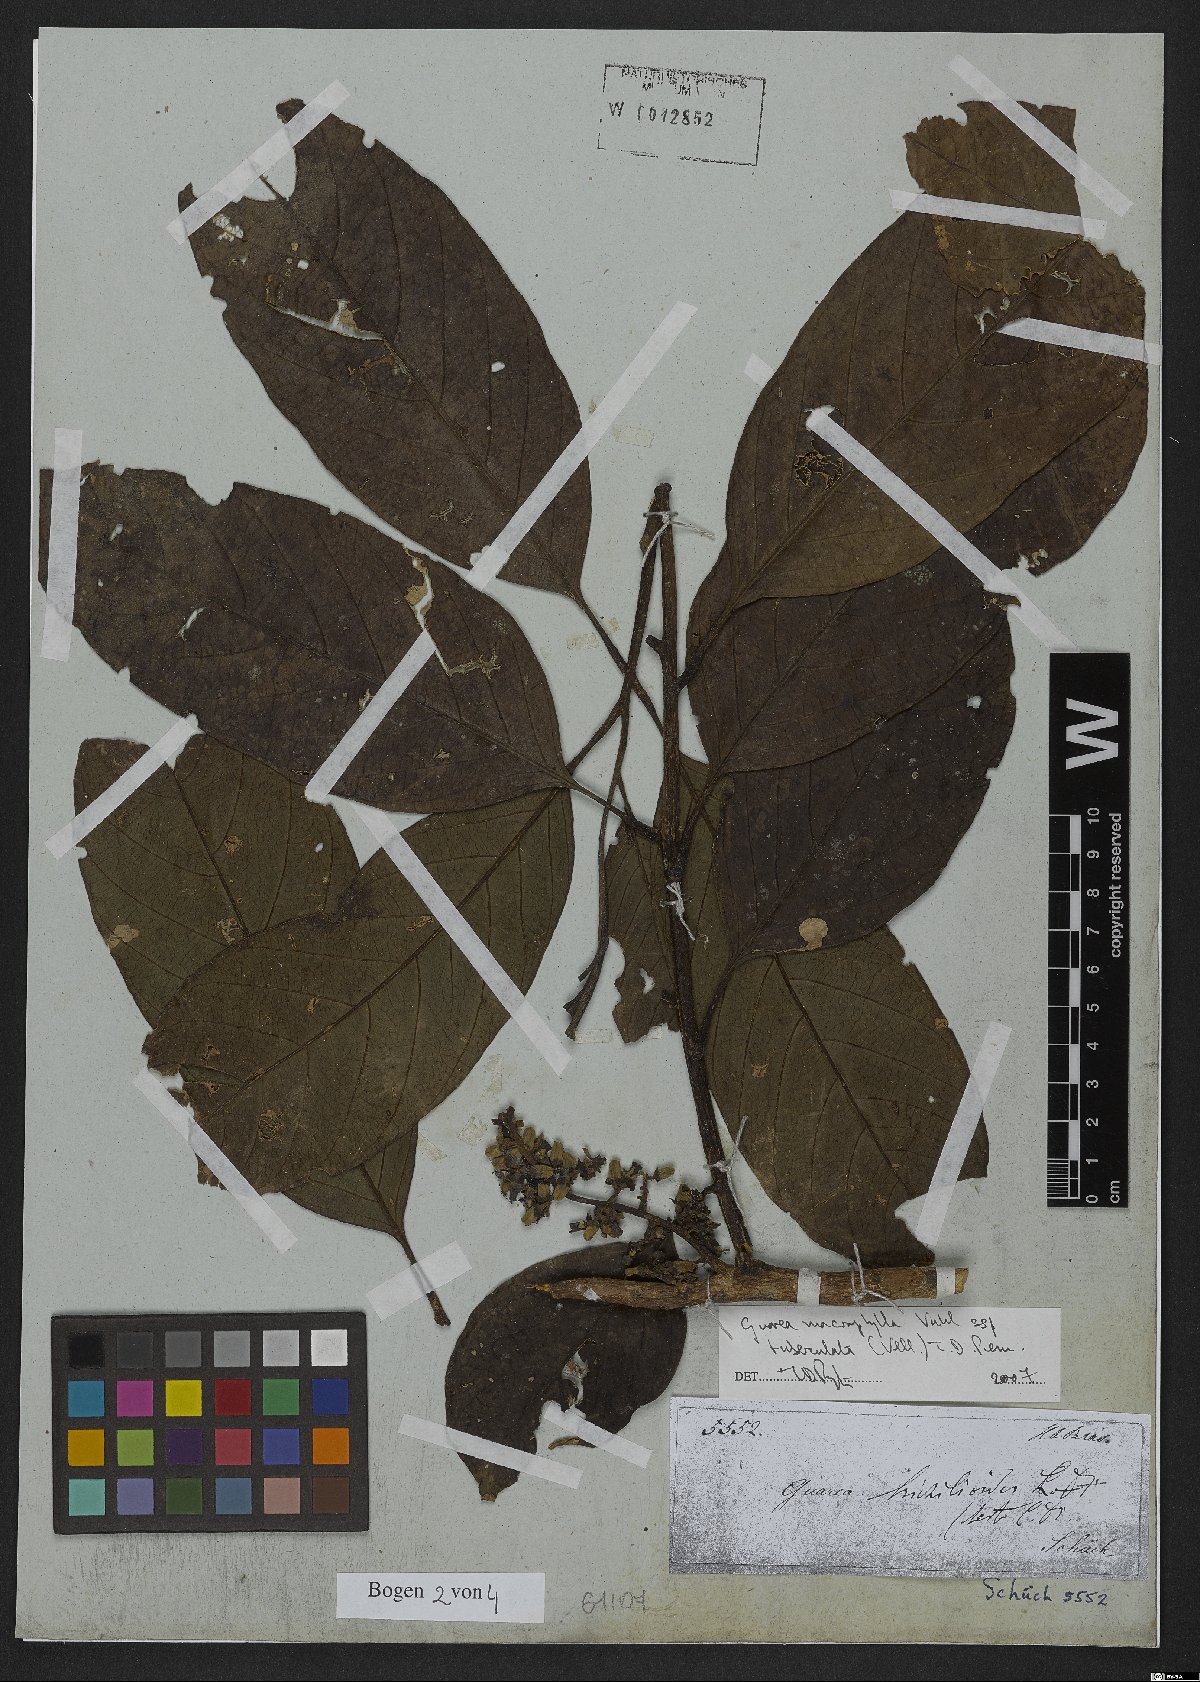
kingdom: Plantae
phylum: Tracheophyta
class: Magnoliopsida
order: Sapindales
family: Meliaceae
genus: Guarea
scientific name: Guarea macrophylla
